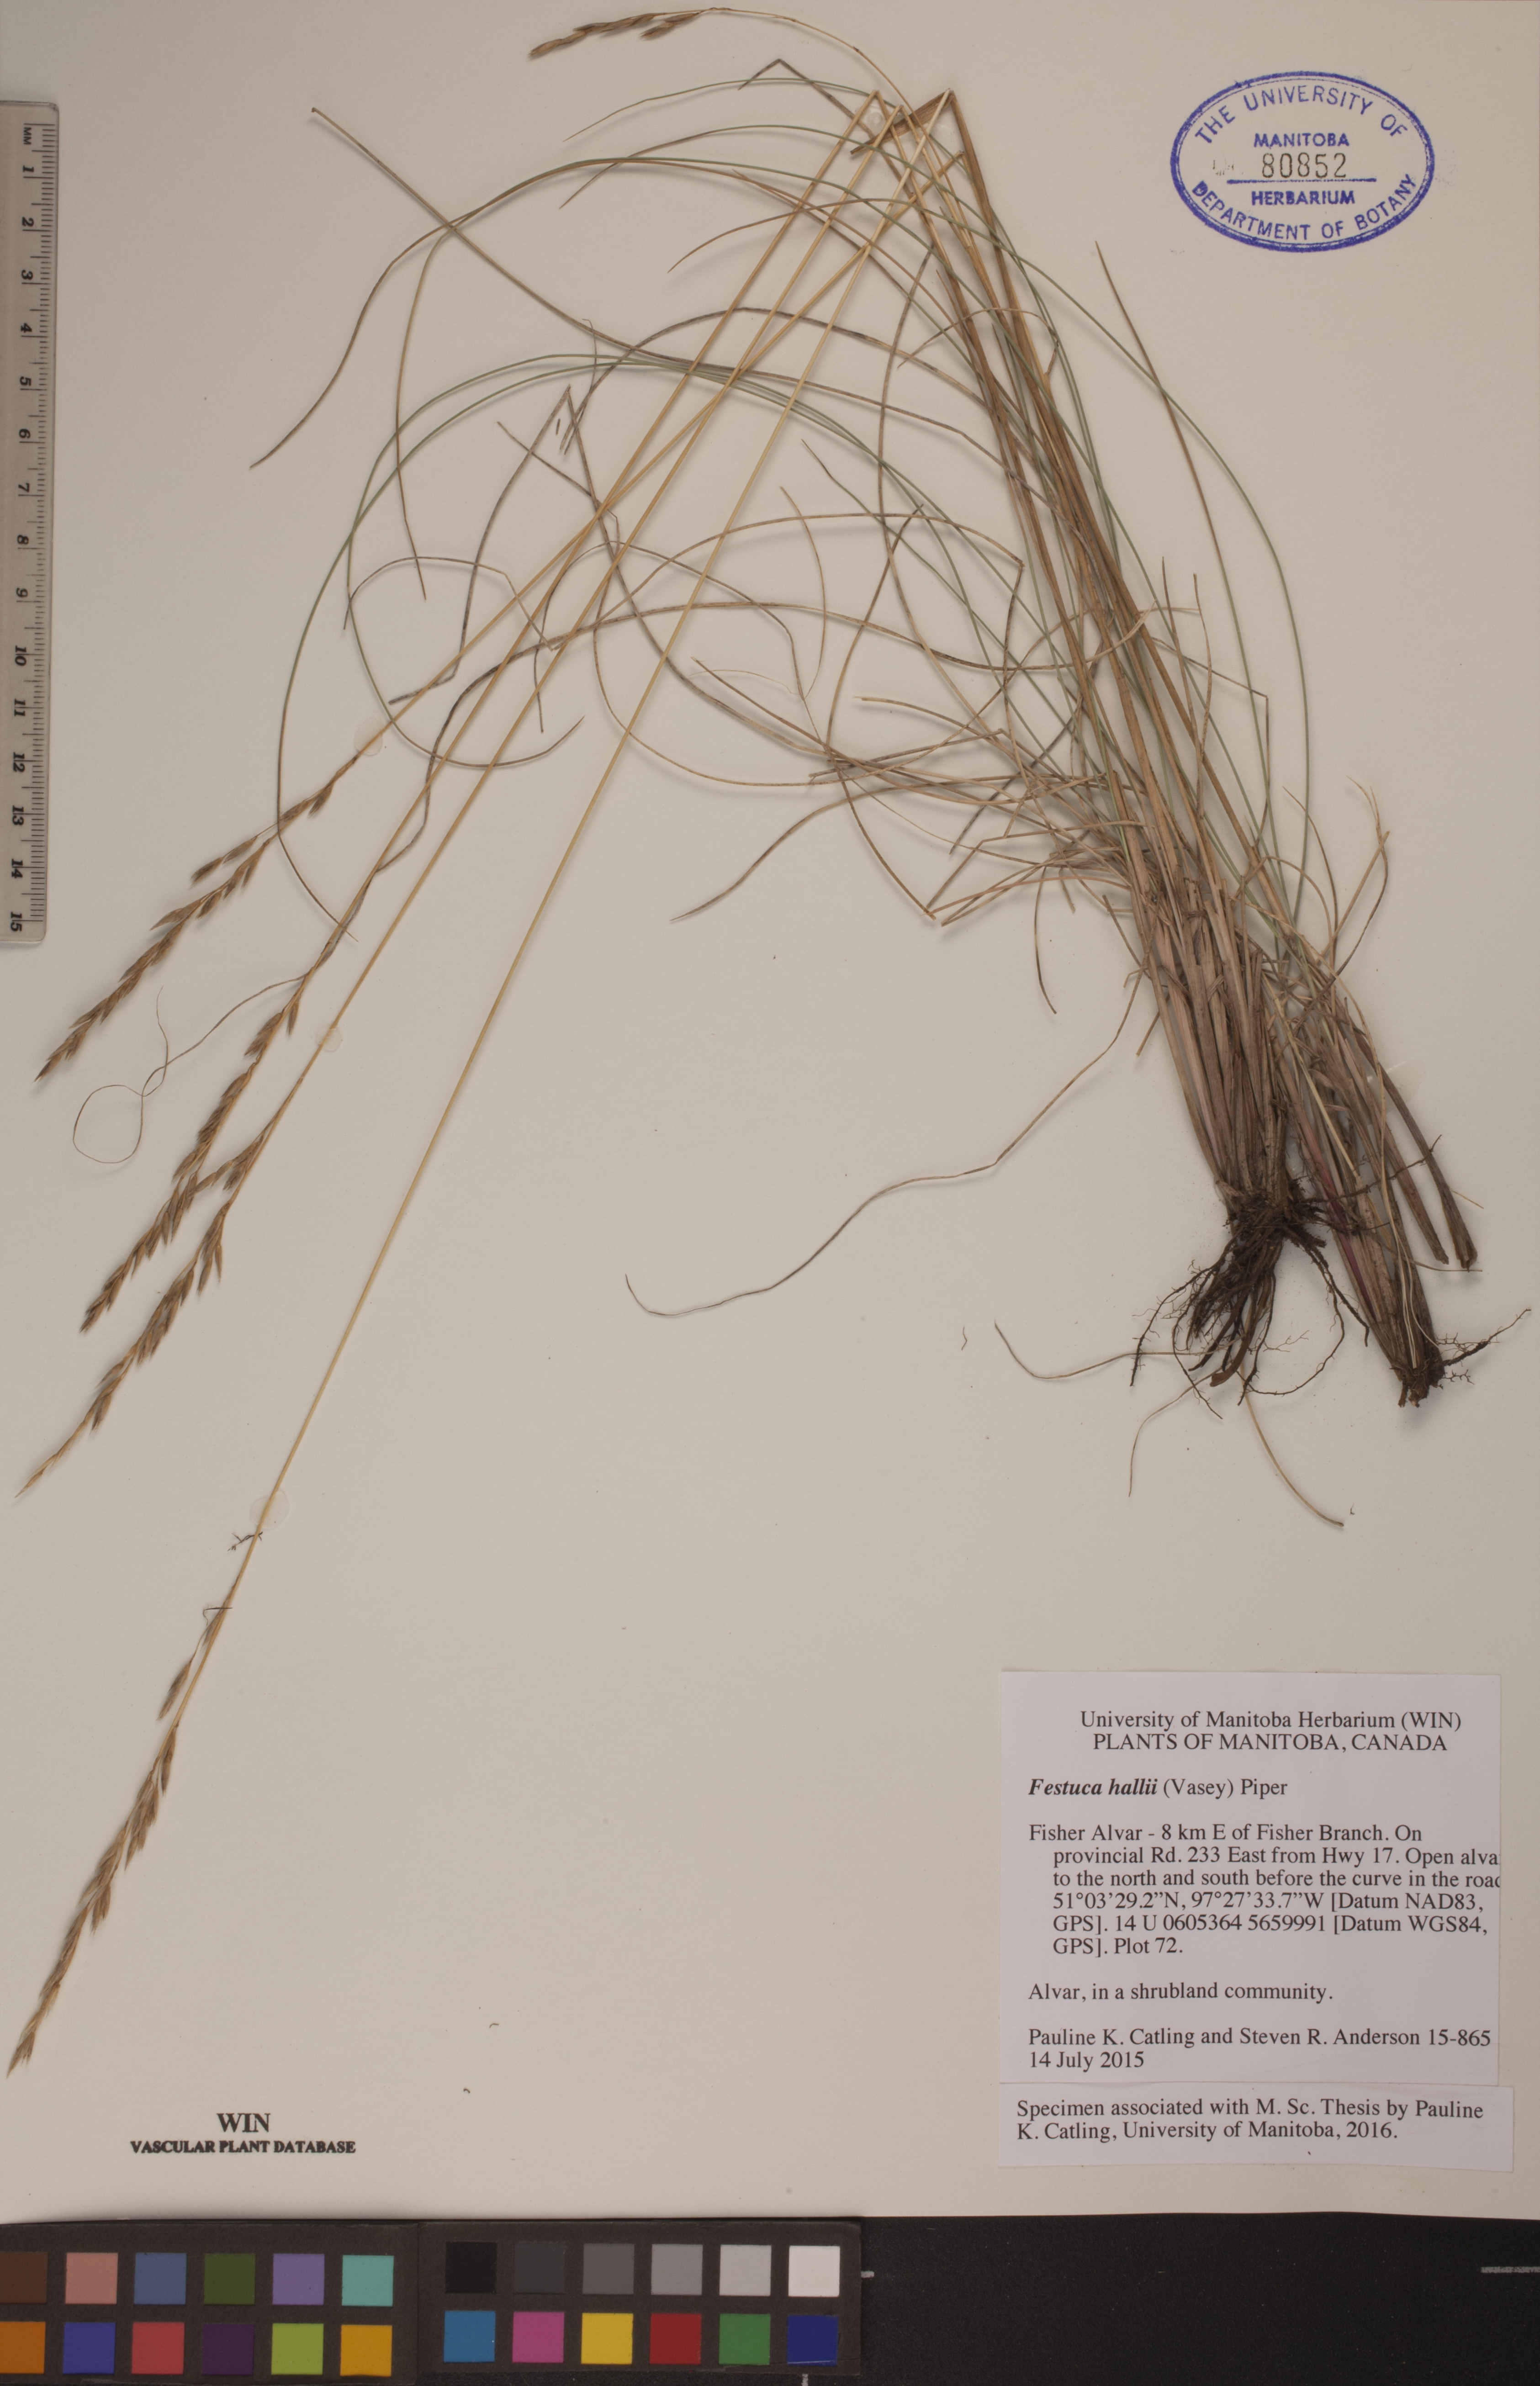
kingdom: Plantae
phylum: Tracheophyta
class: Liliopsida
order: Poales
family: Poaceae
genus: Festuca
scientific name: Festuca hallii
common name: Hall's fescue
